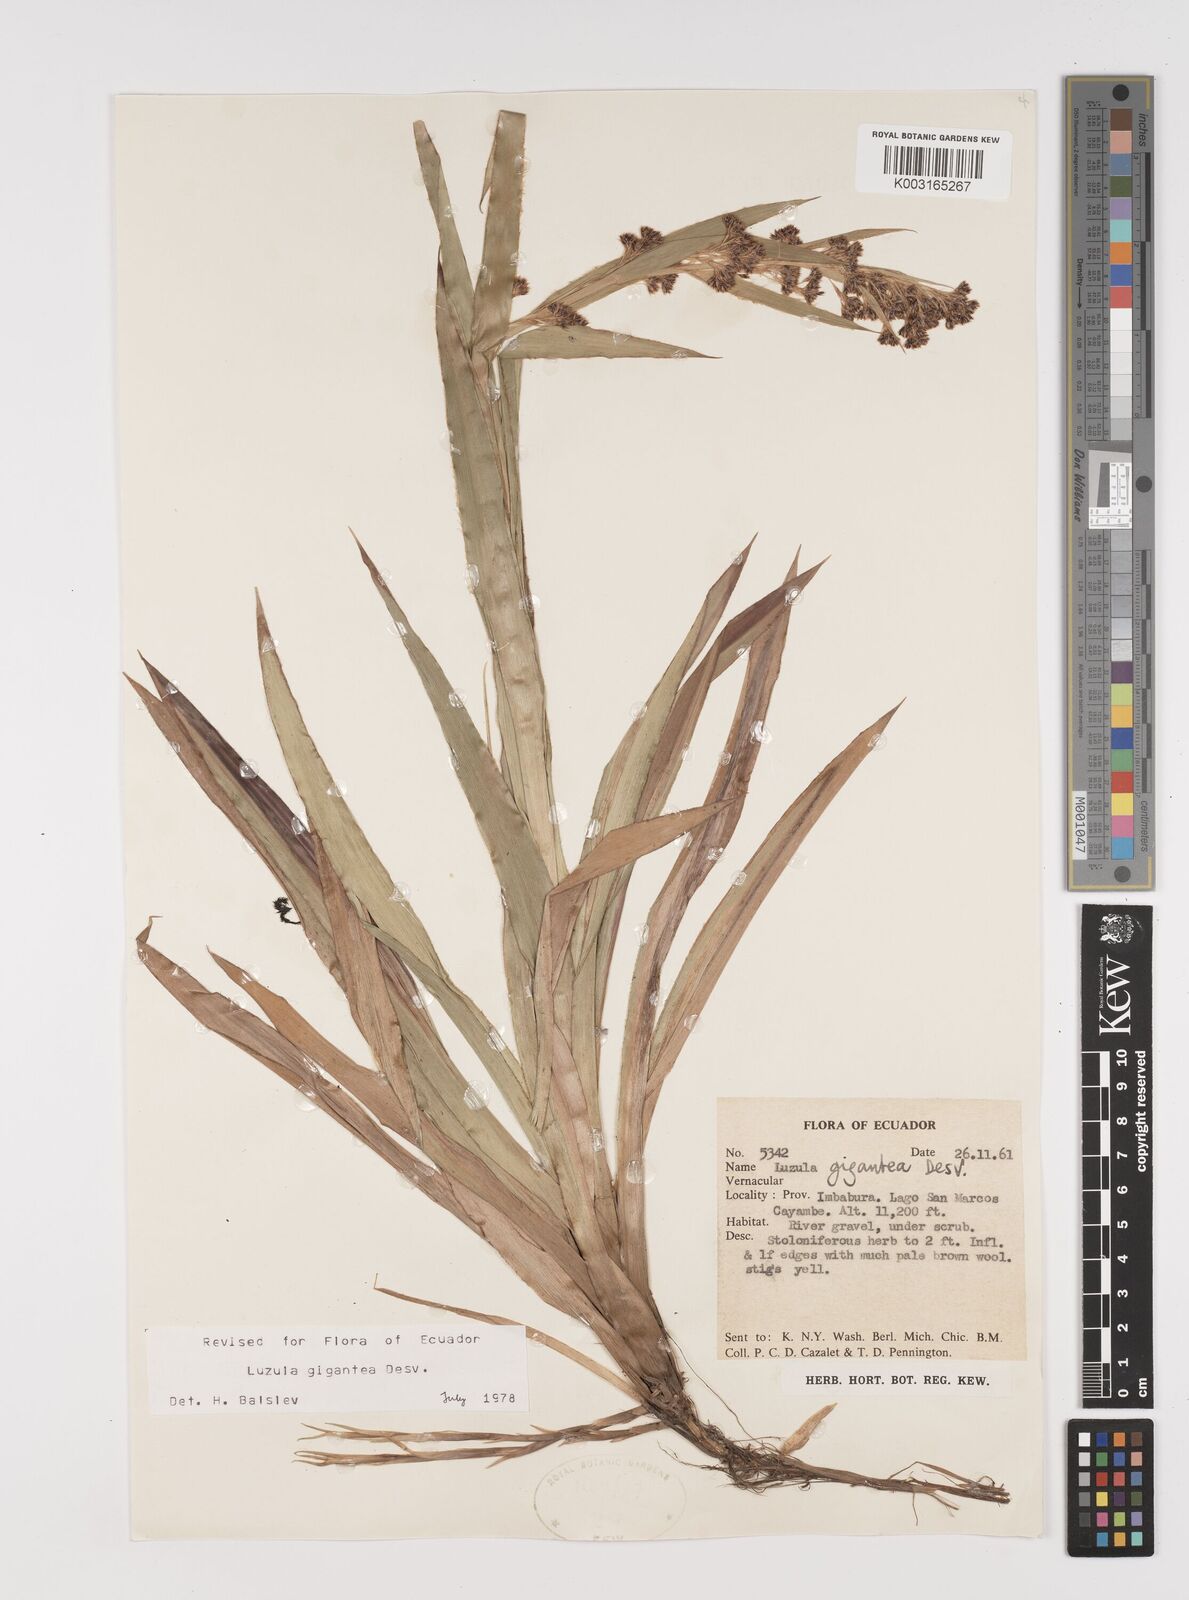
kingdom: Plantae
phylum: Tracheophyta
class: Liliopsida
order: Poales
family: Juncaceae
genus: Luzula
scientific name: Luzula gigantea
